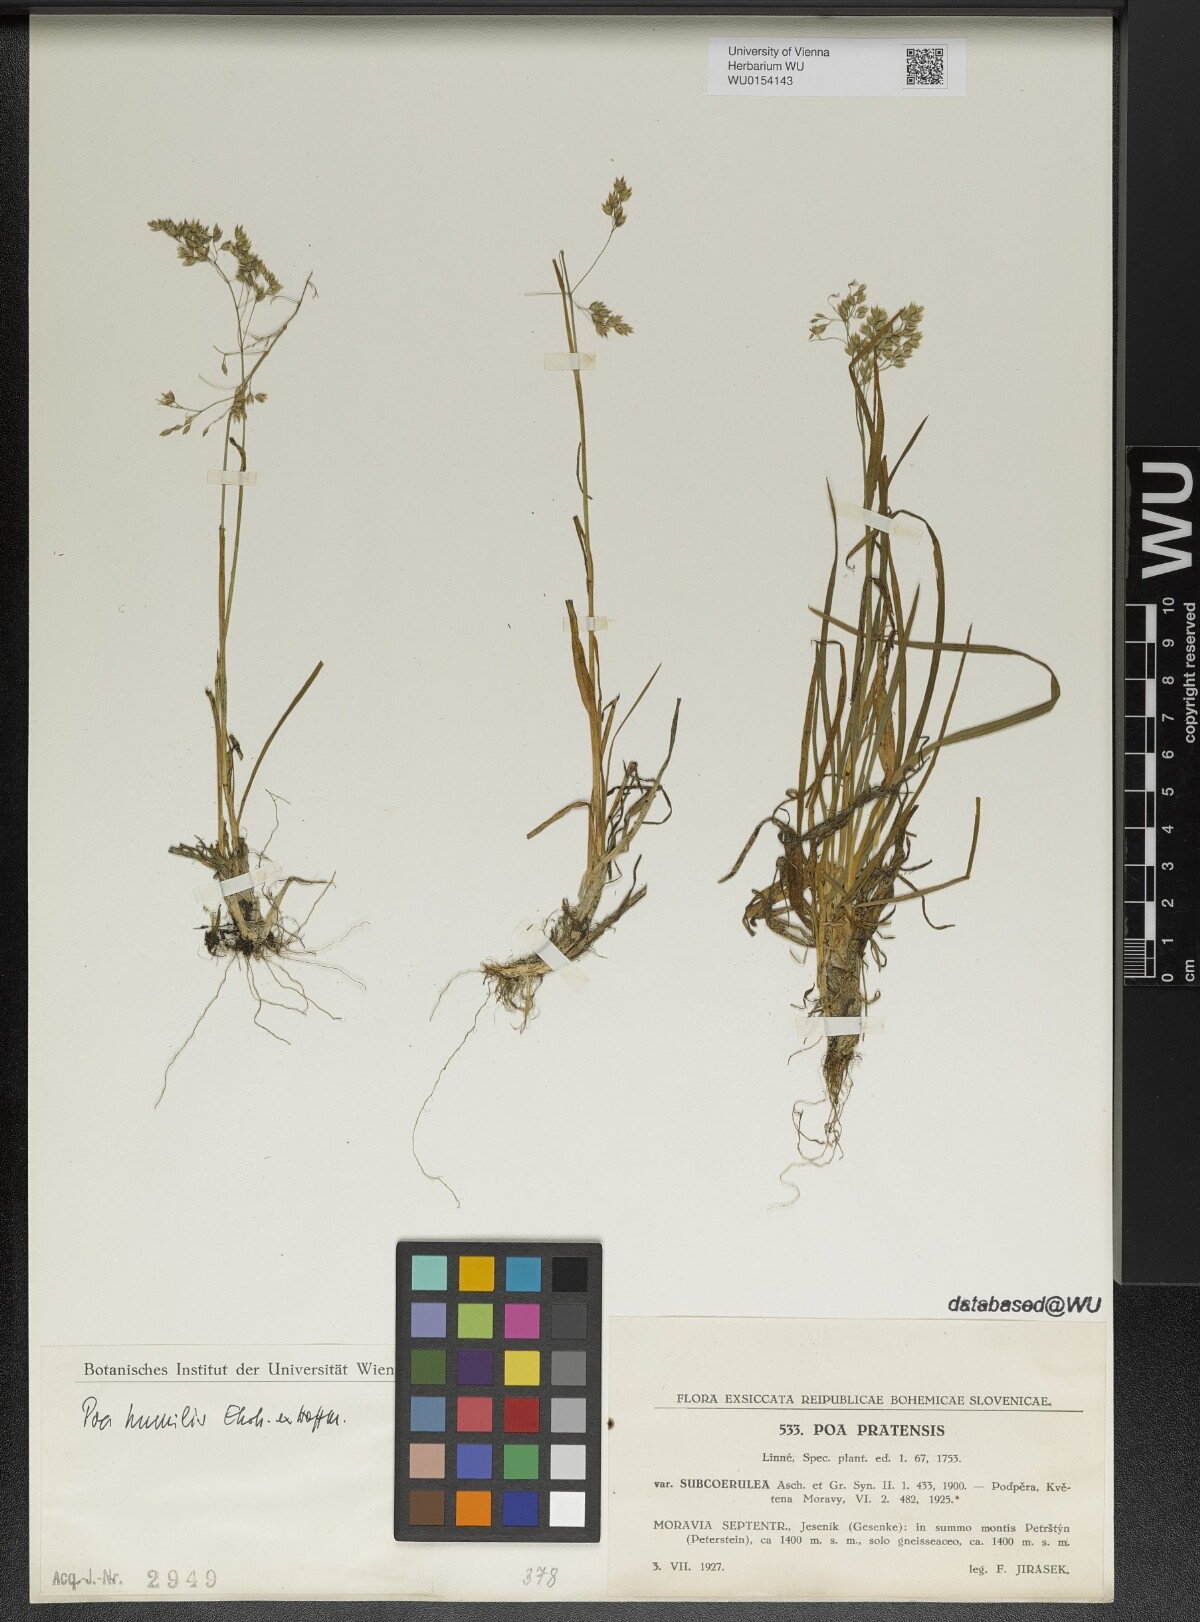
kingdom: Plantae
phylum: Tracheophyta
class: Liliopsida
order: Poales
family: Poaceae
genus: Poa
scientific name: Poa humilis
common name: Spreading meadow-grass
